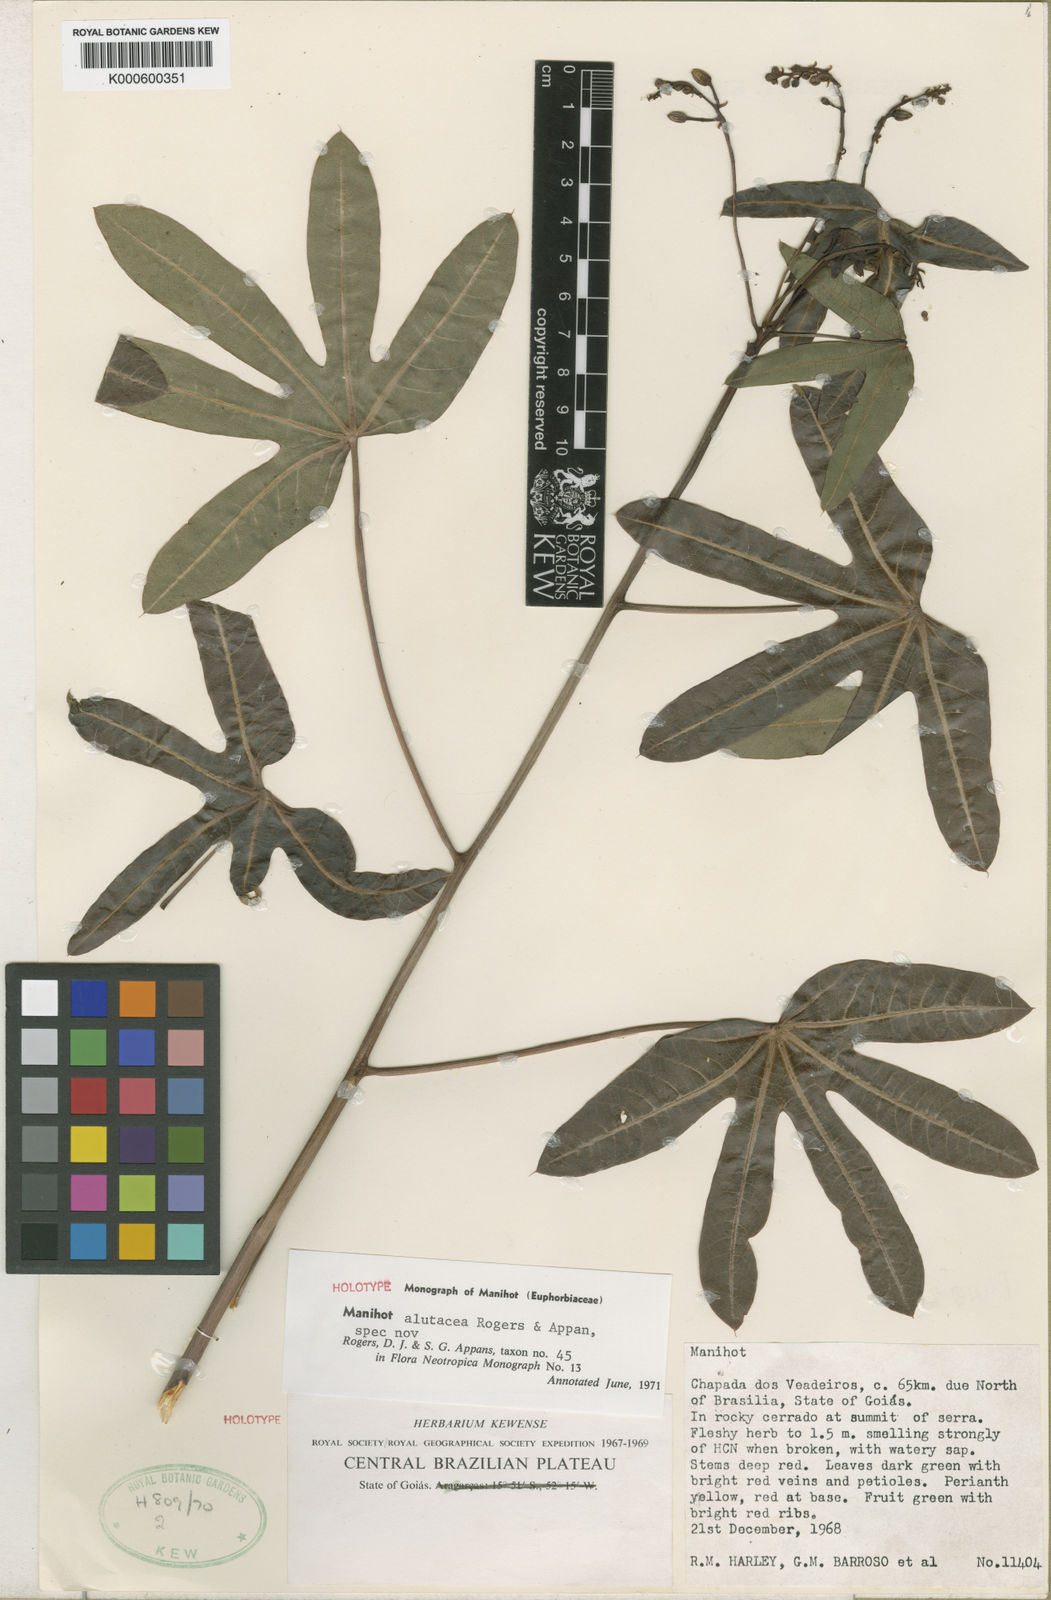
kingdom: Plantae
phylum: Tracheophyta
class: Magnoliopsida
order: Malpighiales
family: Euphorbiaceae
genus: Manihot
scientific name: Manihot alutacea
